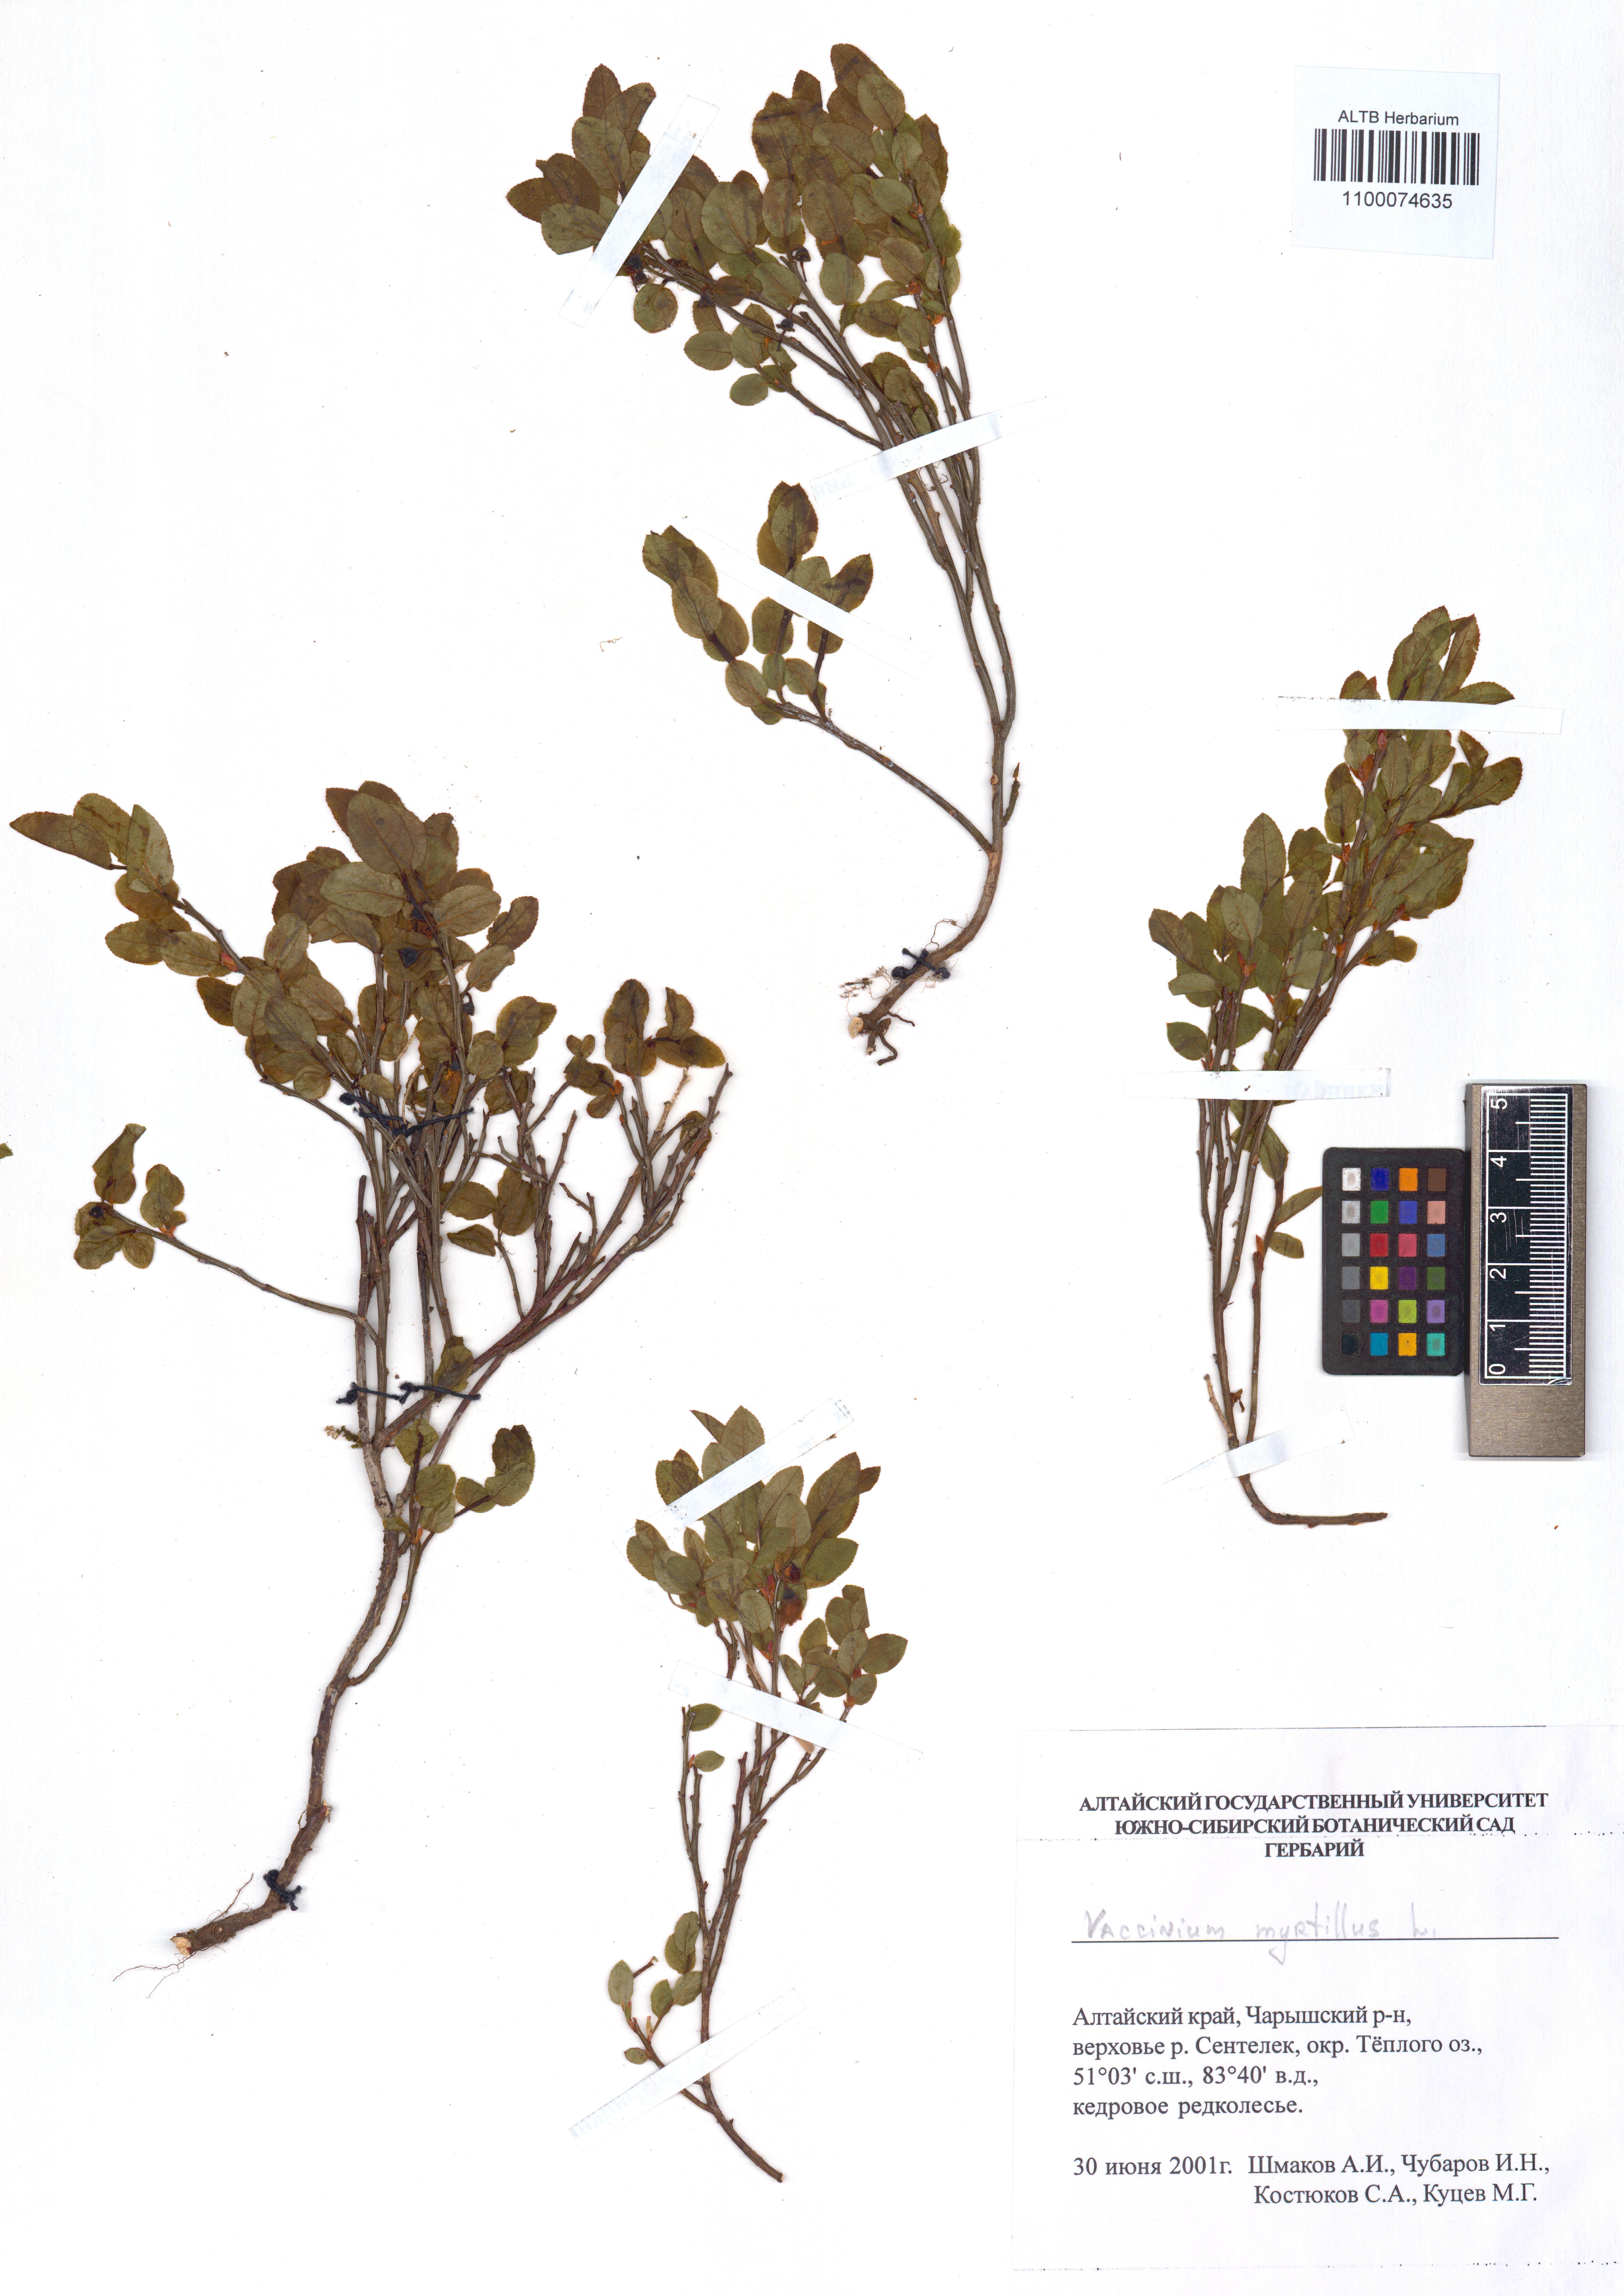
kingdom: Plantae
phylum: Tracheophyta
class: Magnoliopsida
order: Ericales
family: Ericaceae
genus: Vaccinium
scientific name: Vaccinium myrtillus
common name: Bilberry
